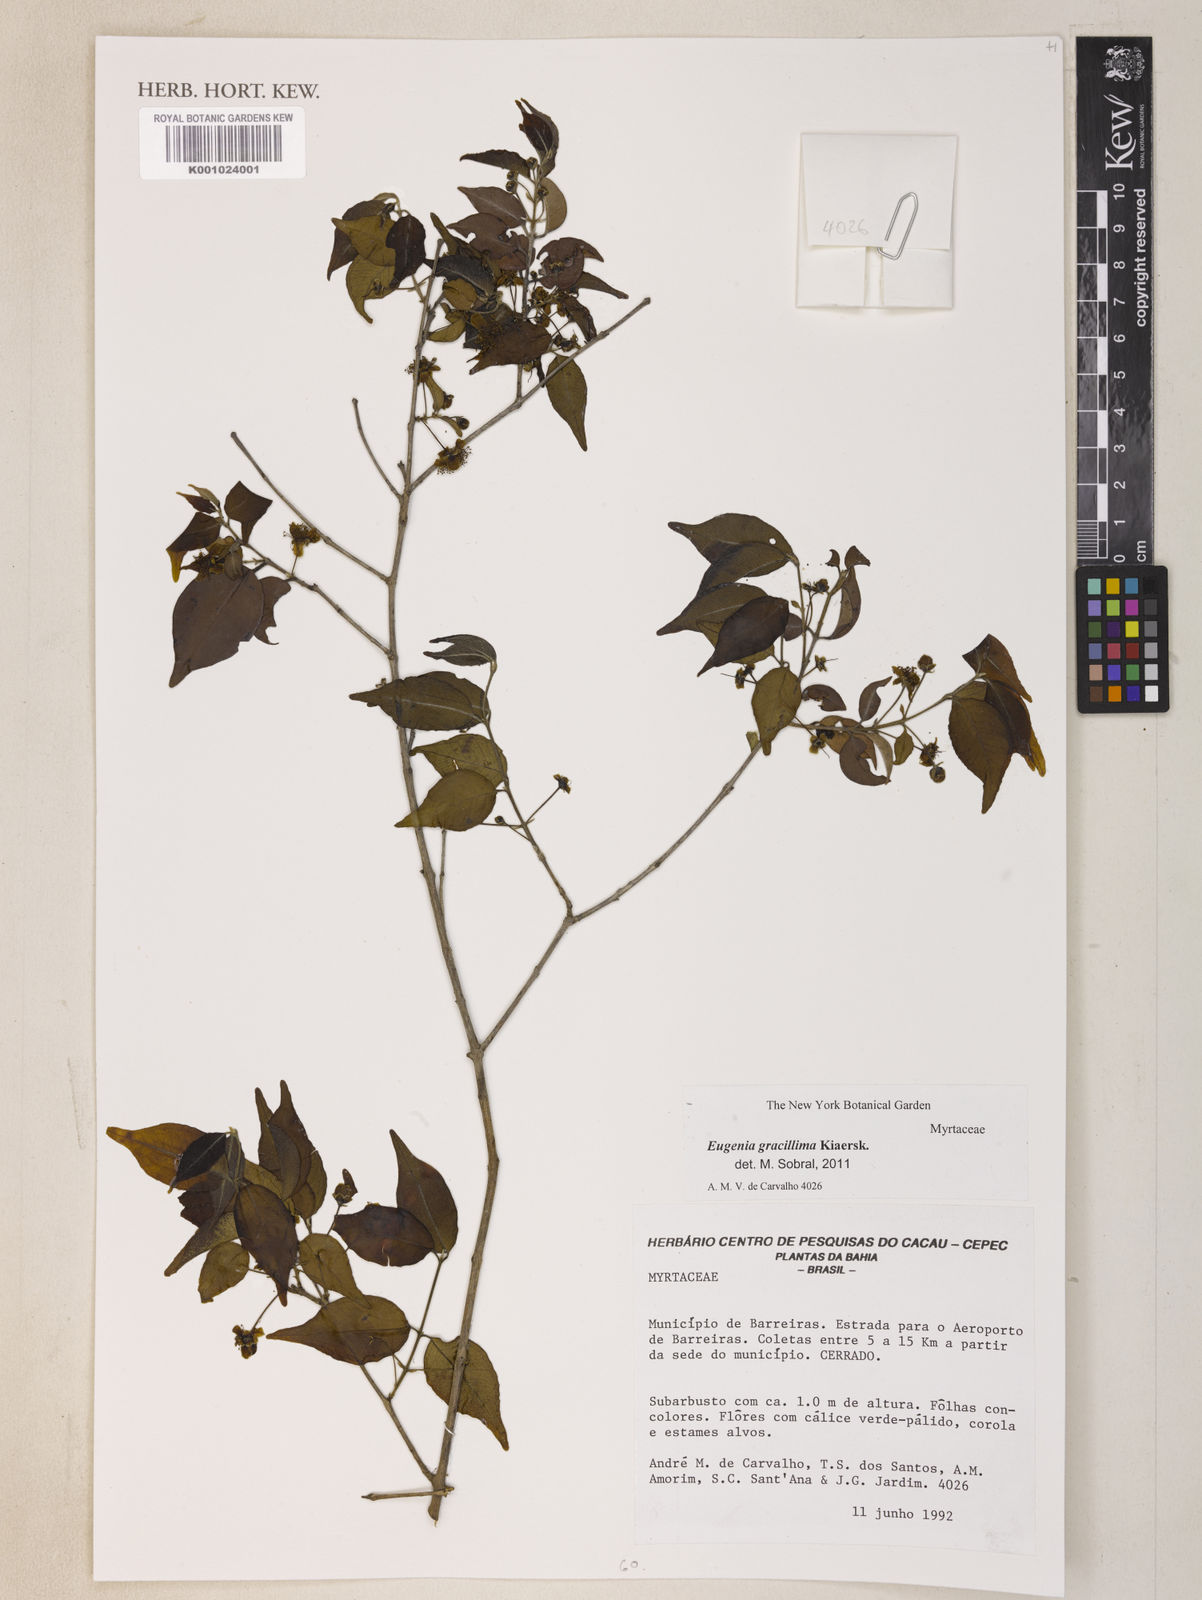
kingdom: Plantae
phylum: Tracheophyta
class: Magnoliopsida
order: Myrtales
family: Myrtaceae
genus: Eugenia
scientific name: Eugenia gracillima
